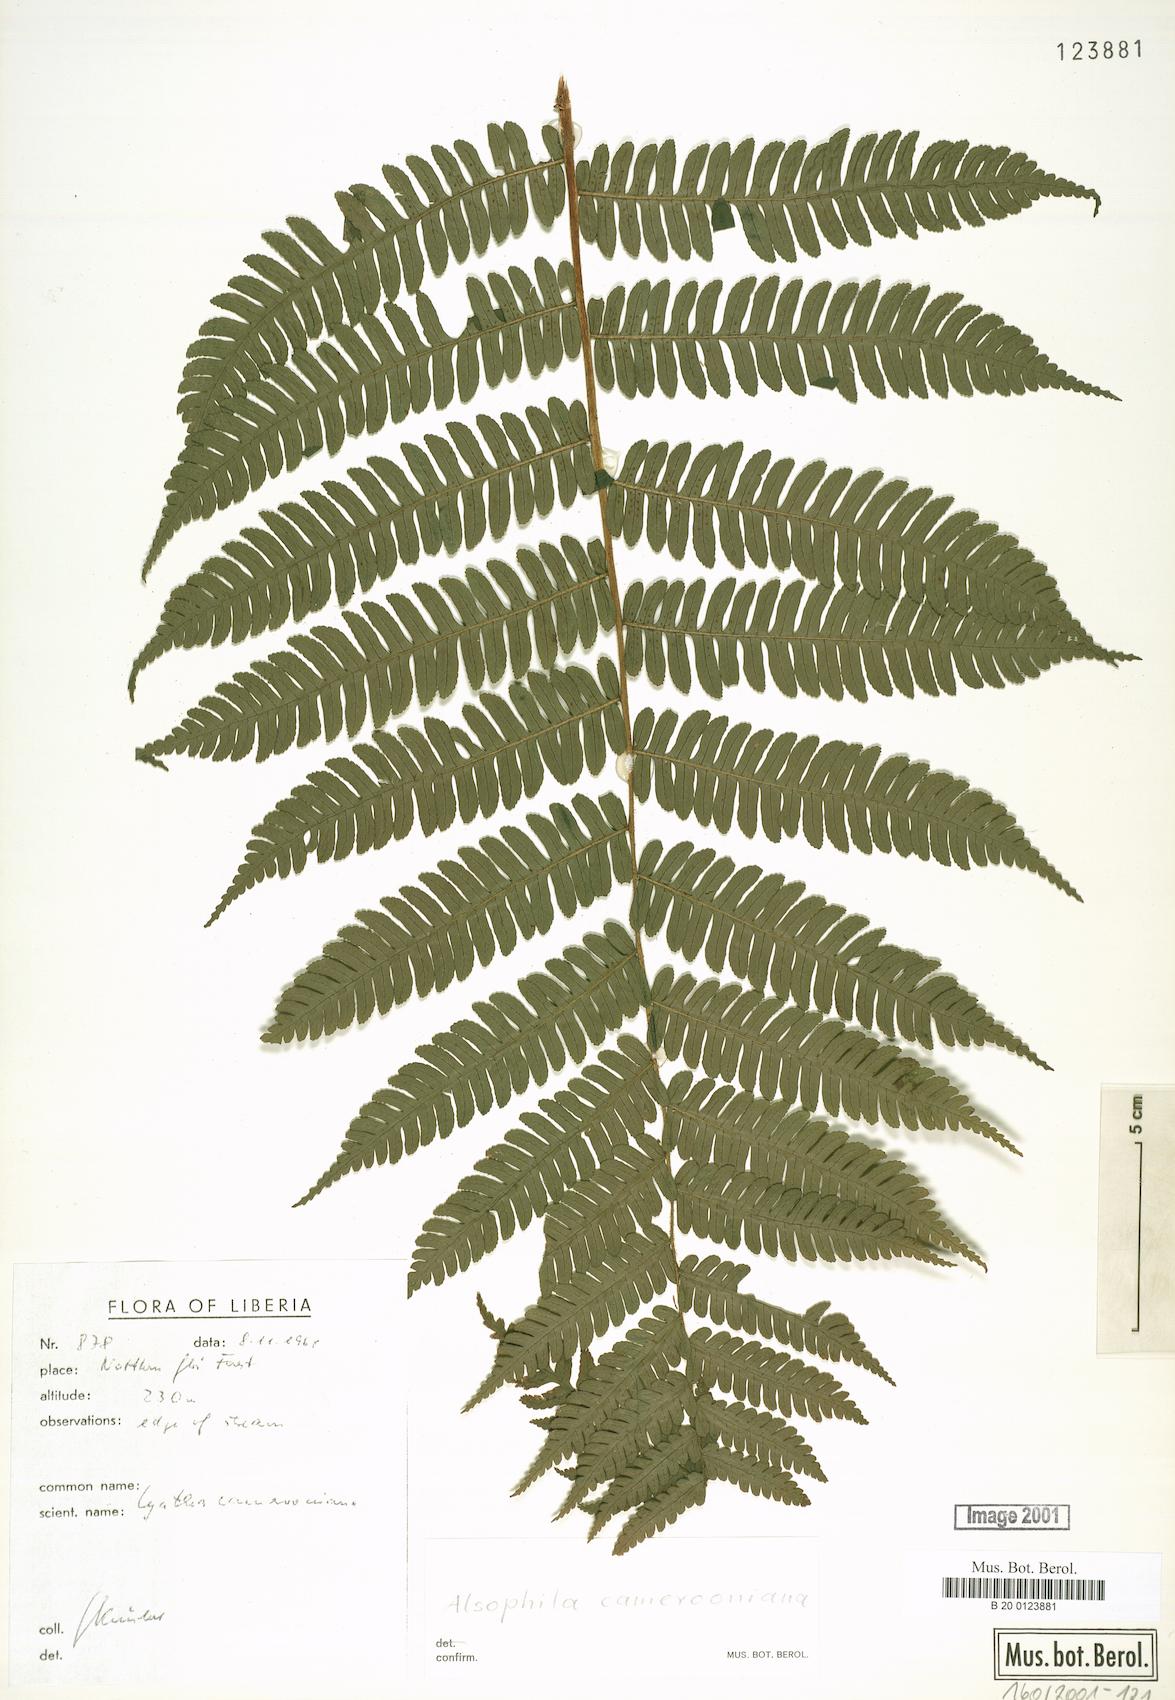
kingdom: Plantae
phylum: Tracheophyta
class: Polypodiopsida
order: Cyatheales
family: Cyatheaceae
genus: Alsophila
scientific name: Alsophila camerooniana
